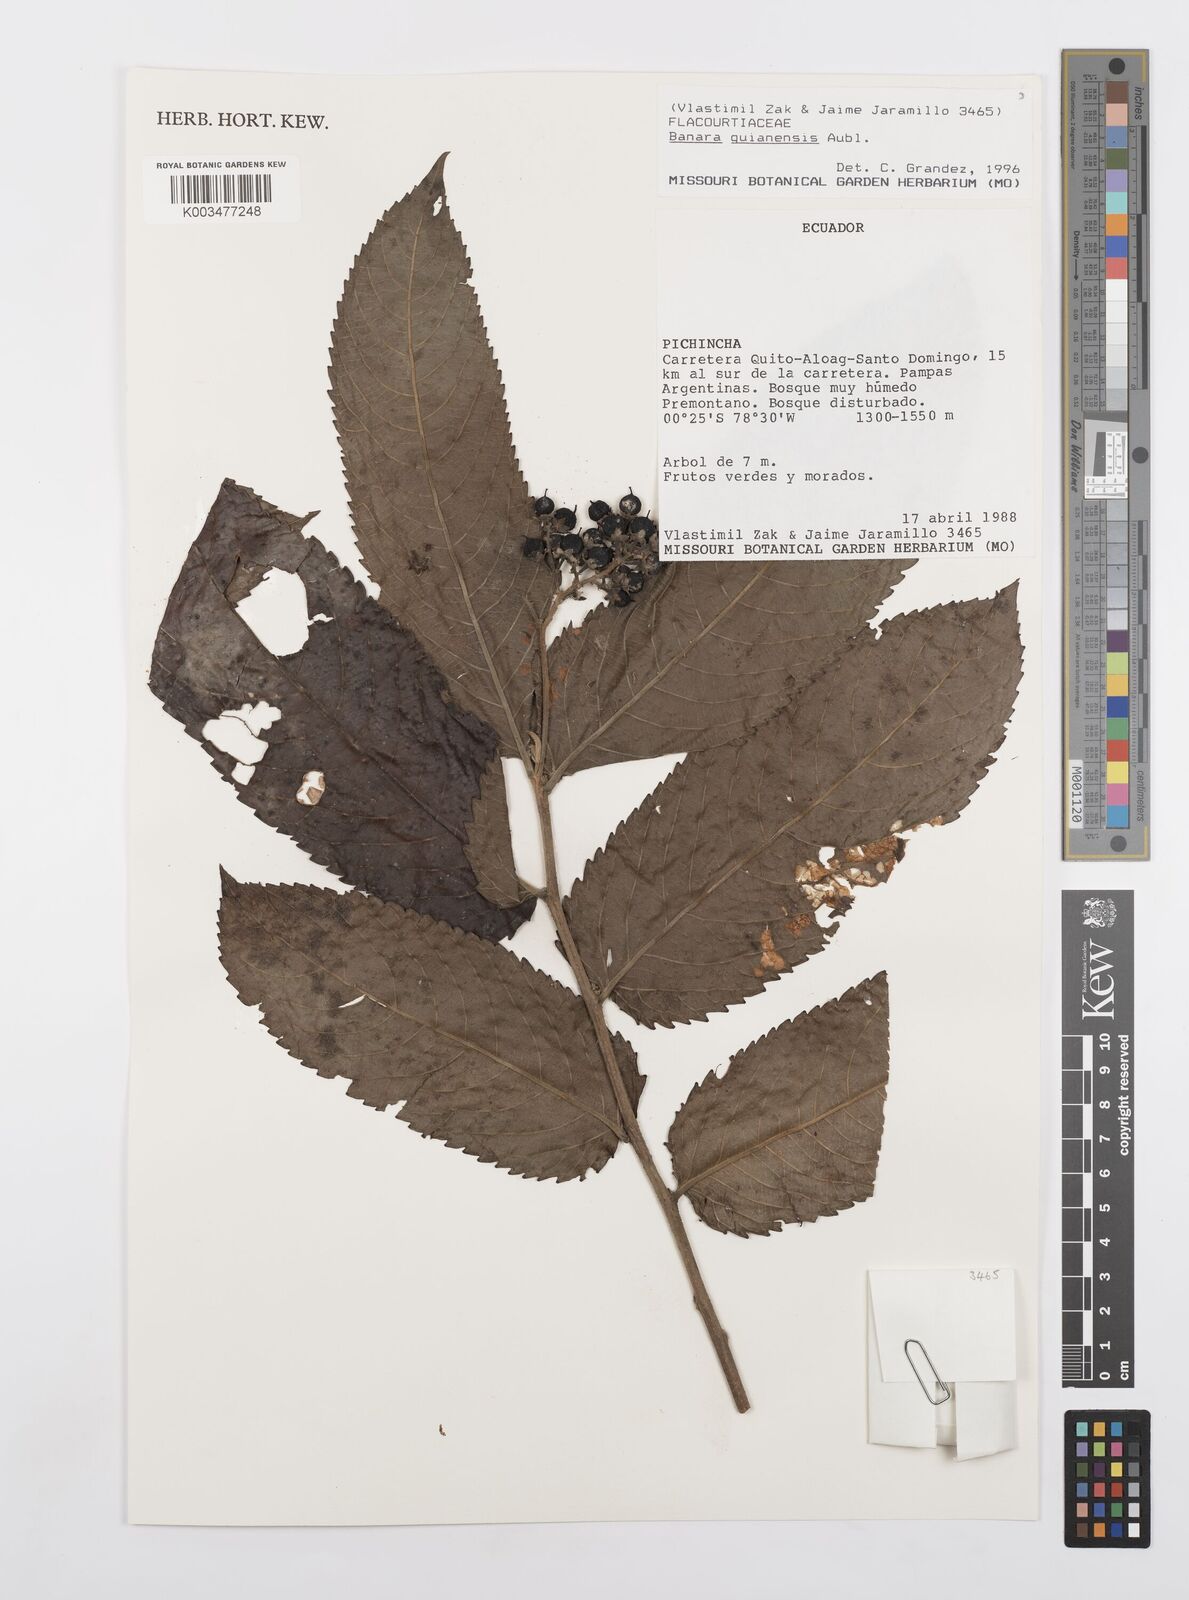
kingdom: Plantae
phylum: Tracheophyta
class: Magnoliopsida
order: Malpighiales
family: Salicaceae
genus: Banara
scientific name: Banara guianensis
